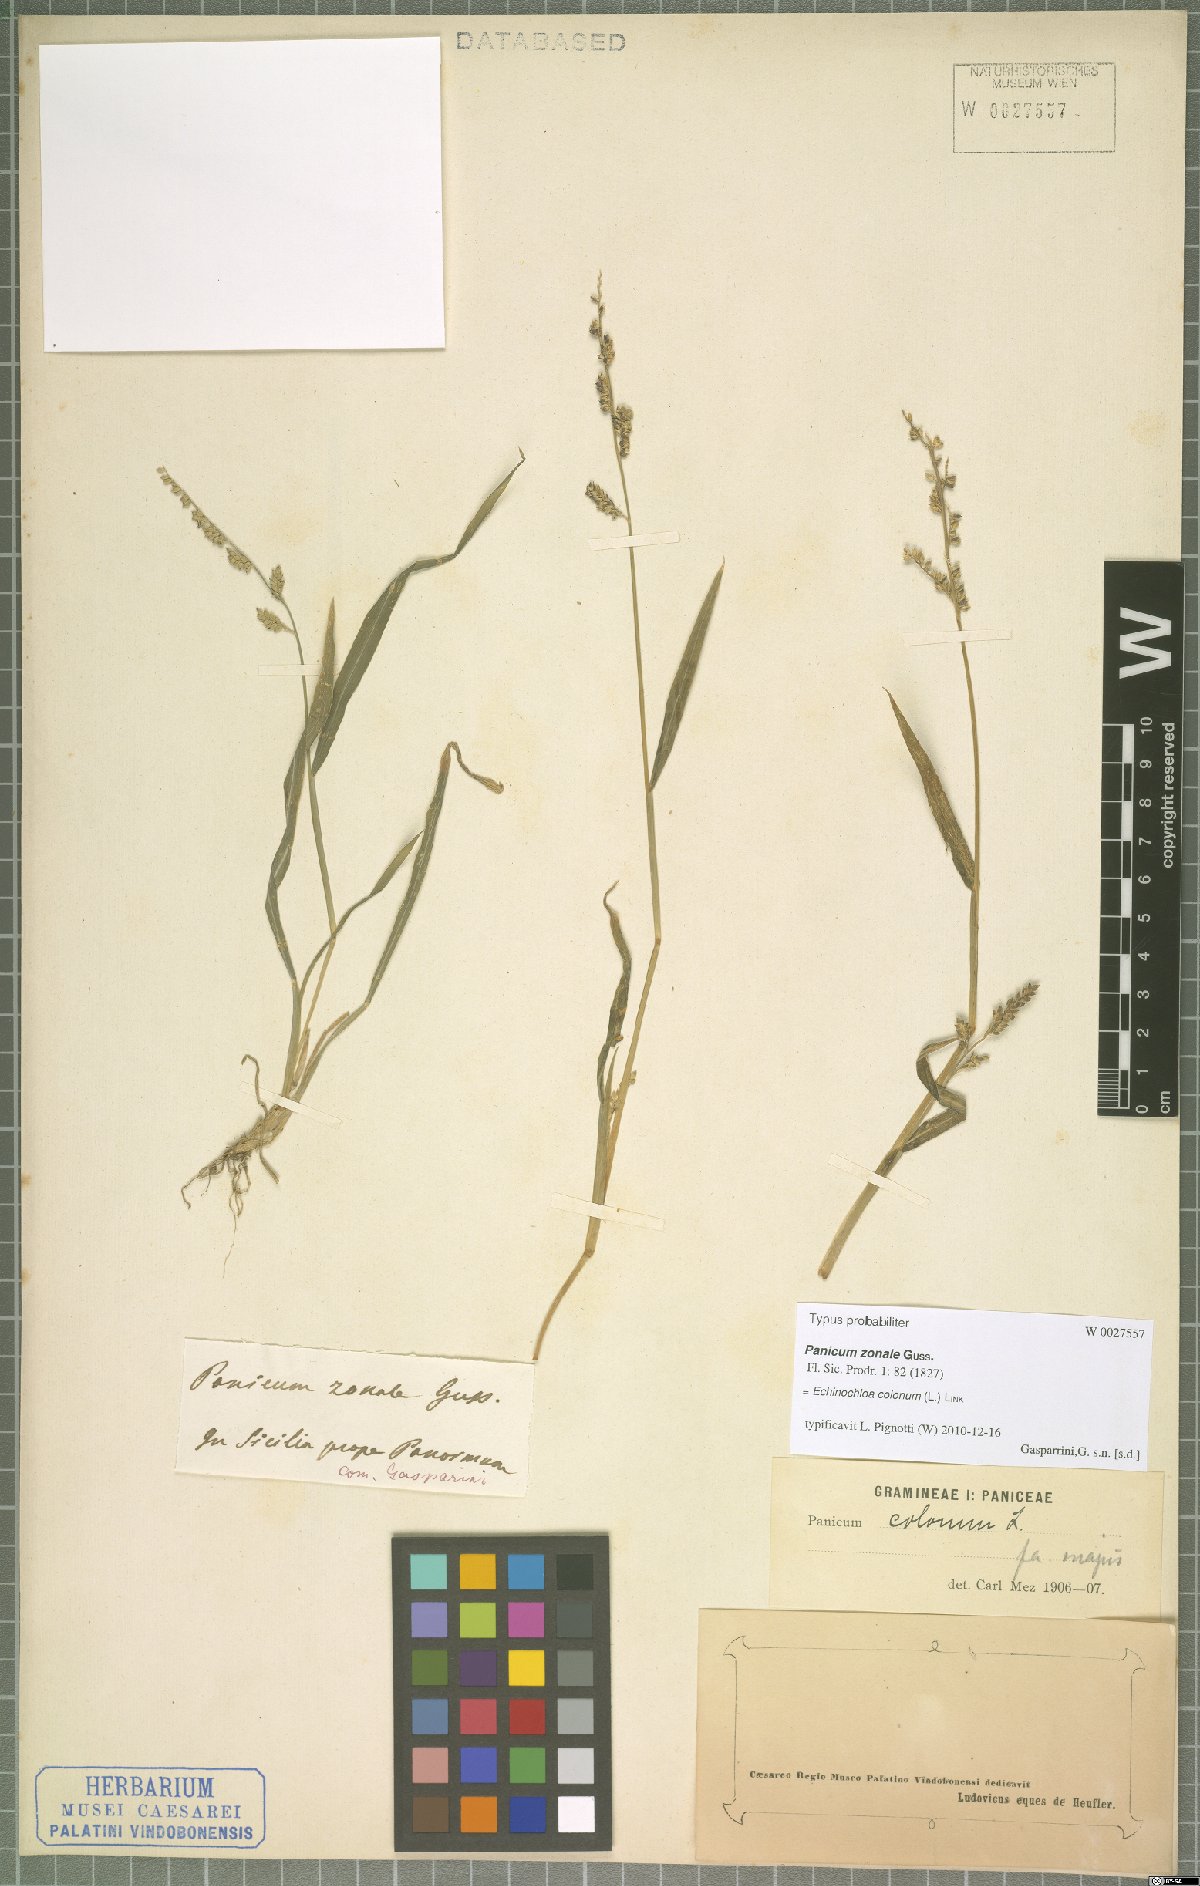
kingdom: Plantae
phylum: Tracheophyta
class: Liliopsida
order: Poales
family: Poaceae
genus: Echinochloa
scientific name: Echinochloa colonum
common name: Jungle rice
